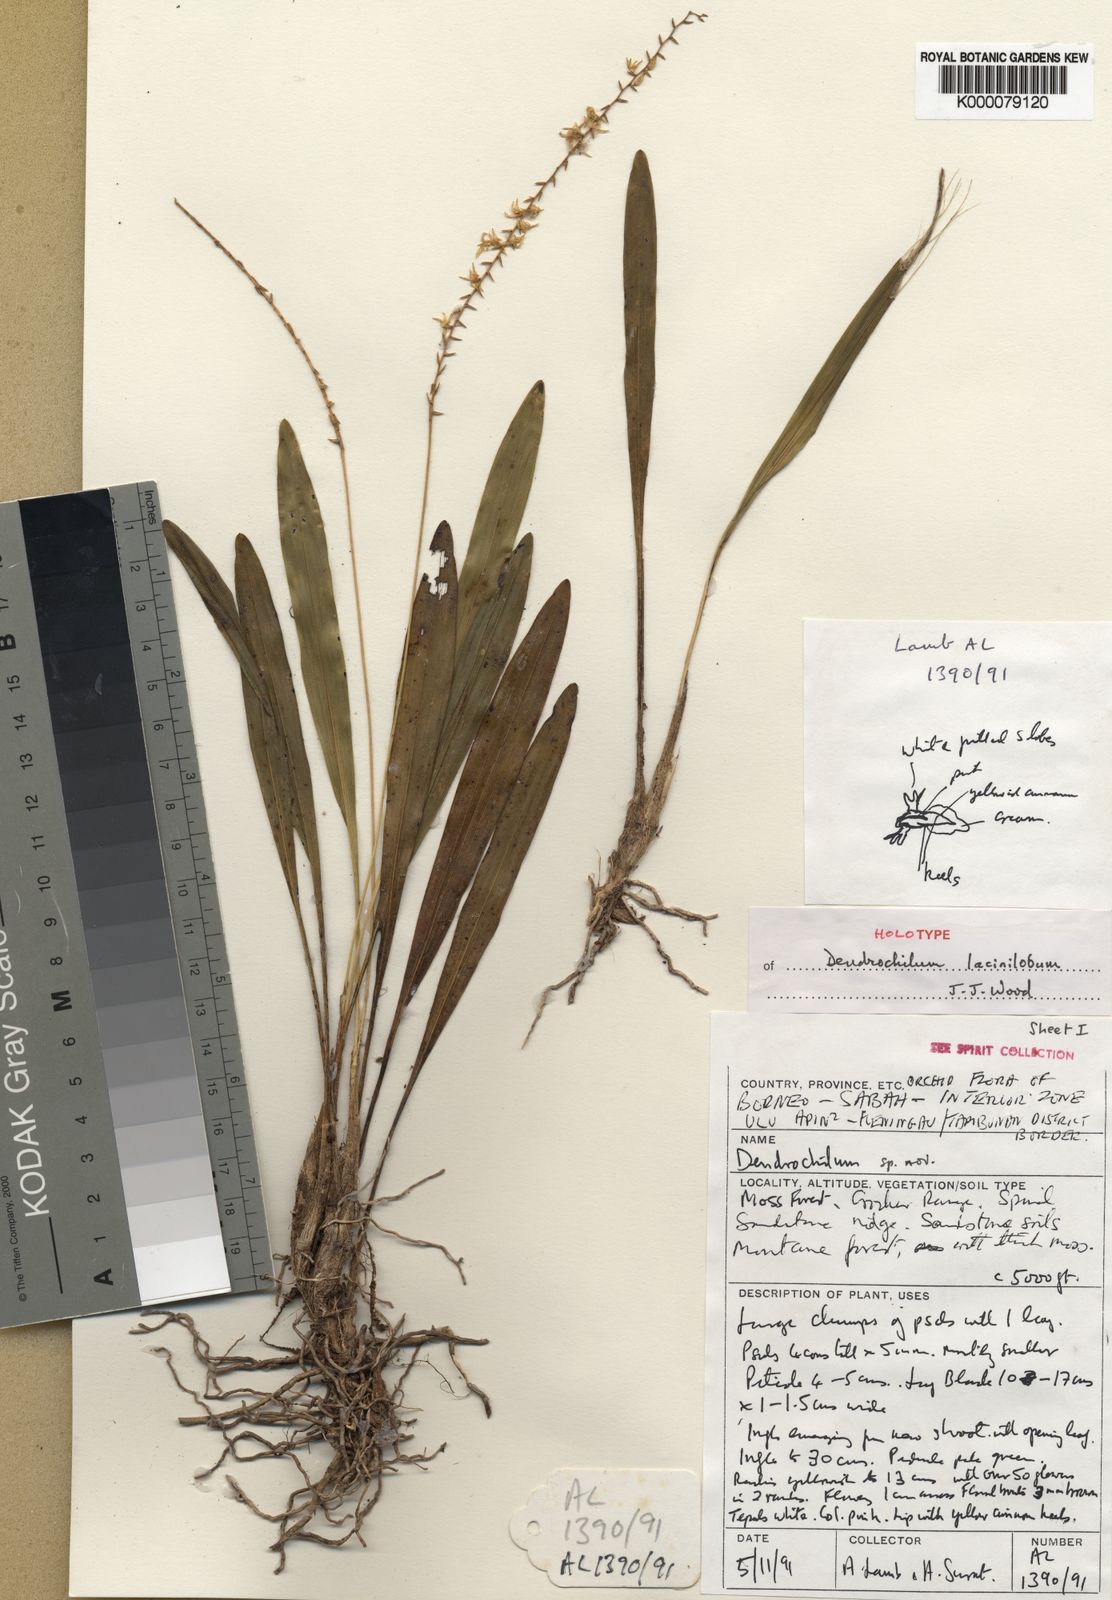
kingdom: Plantae
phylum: Tracheophyta
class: Liliopsida
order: Asparagales
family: Orchidaceae
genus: Coelogyne
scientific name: Coelogyne laciniloba
